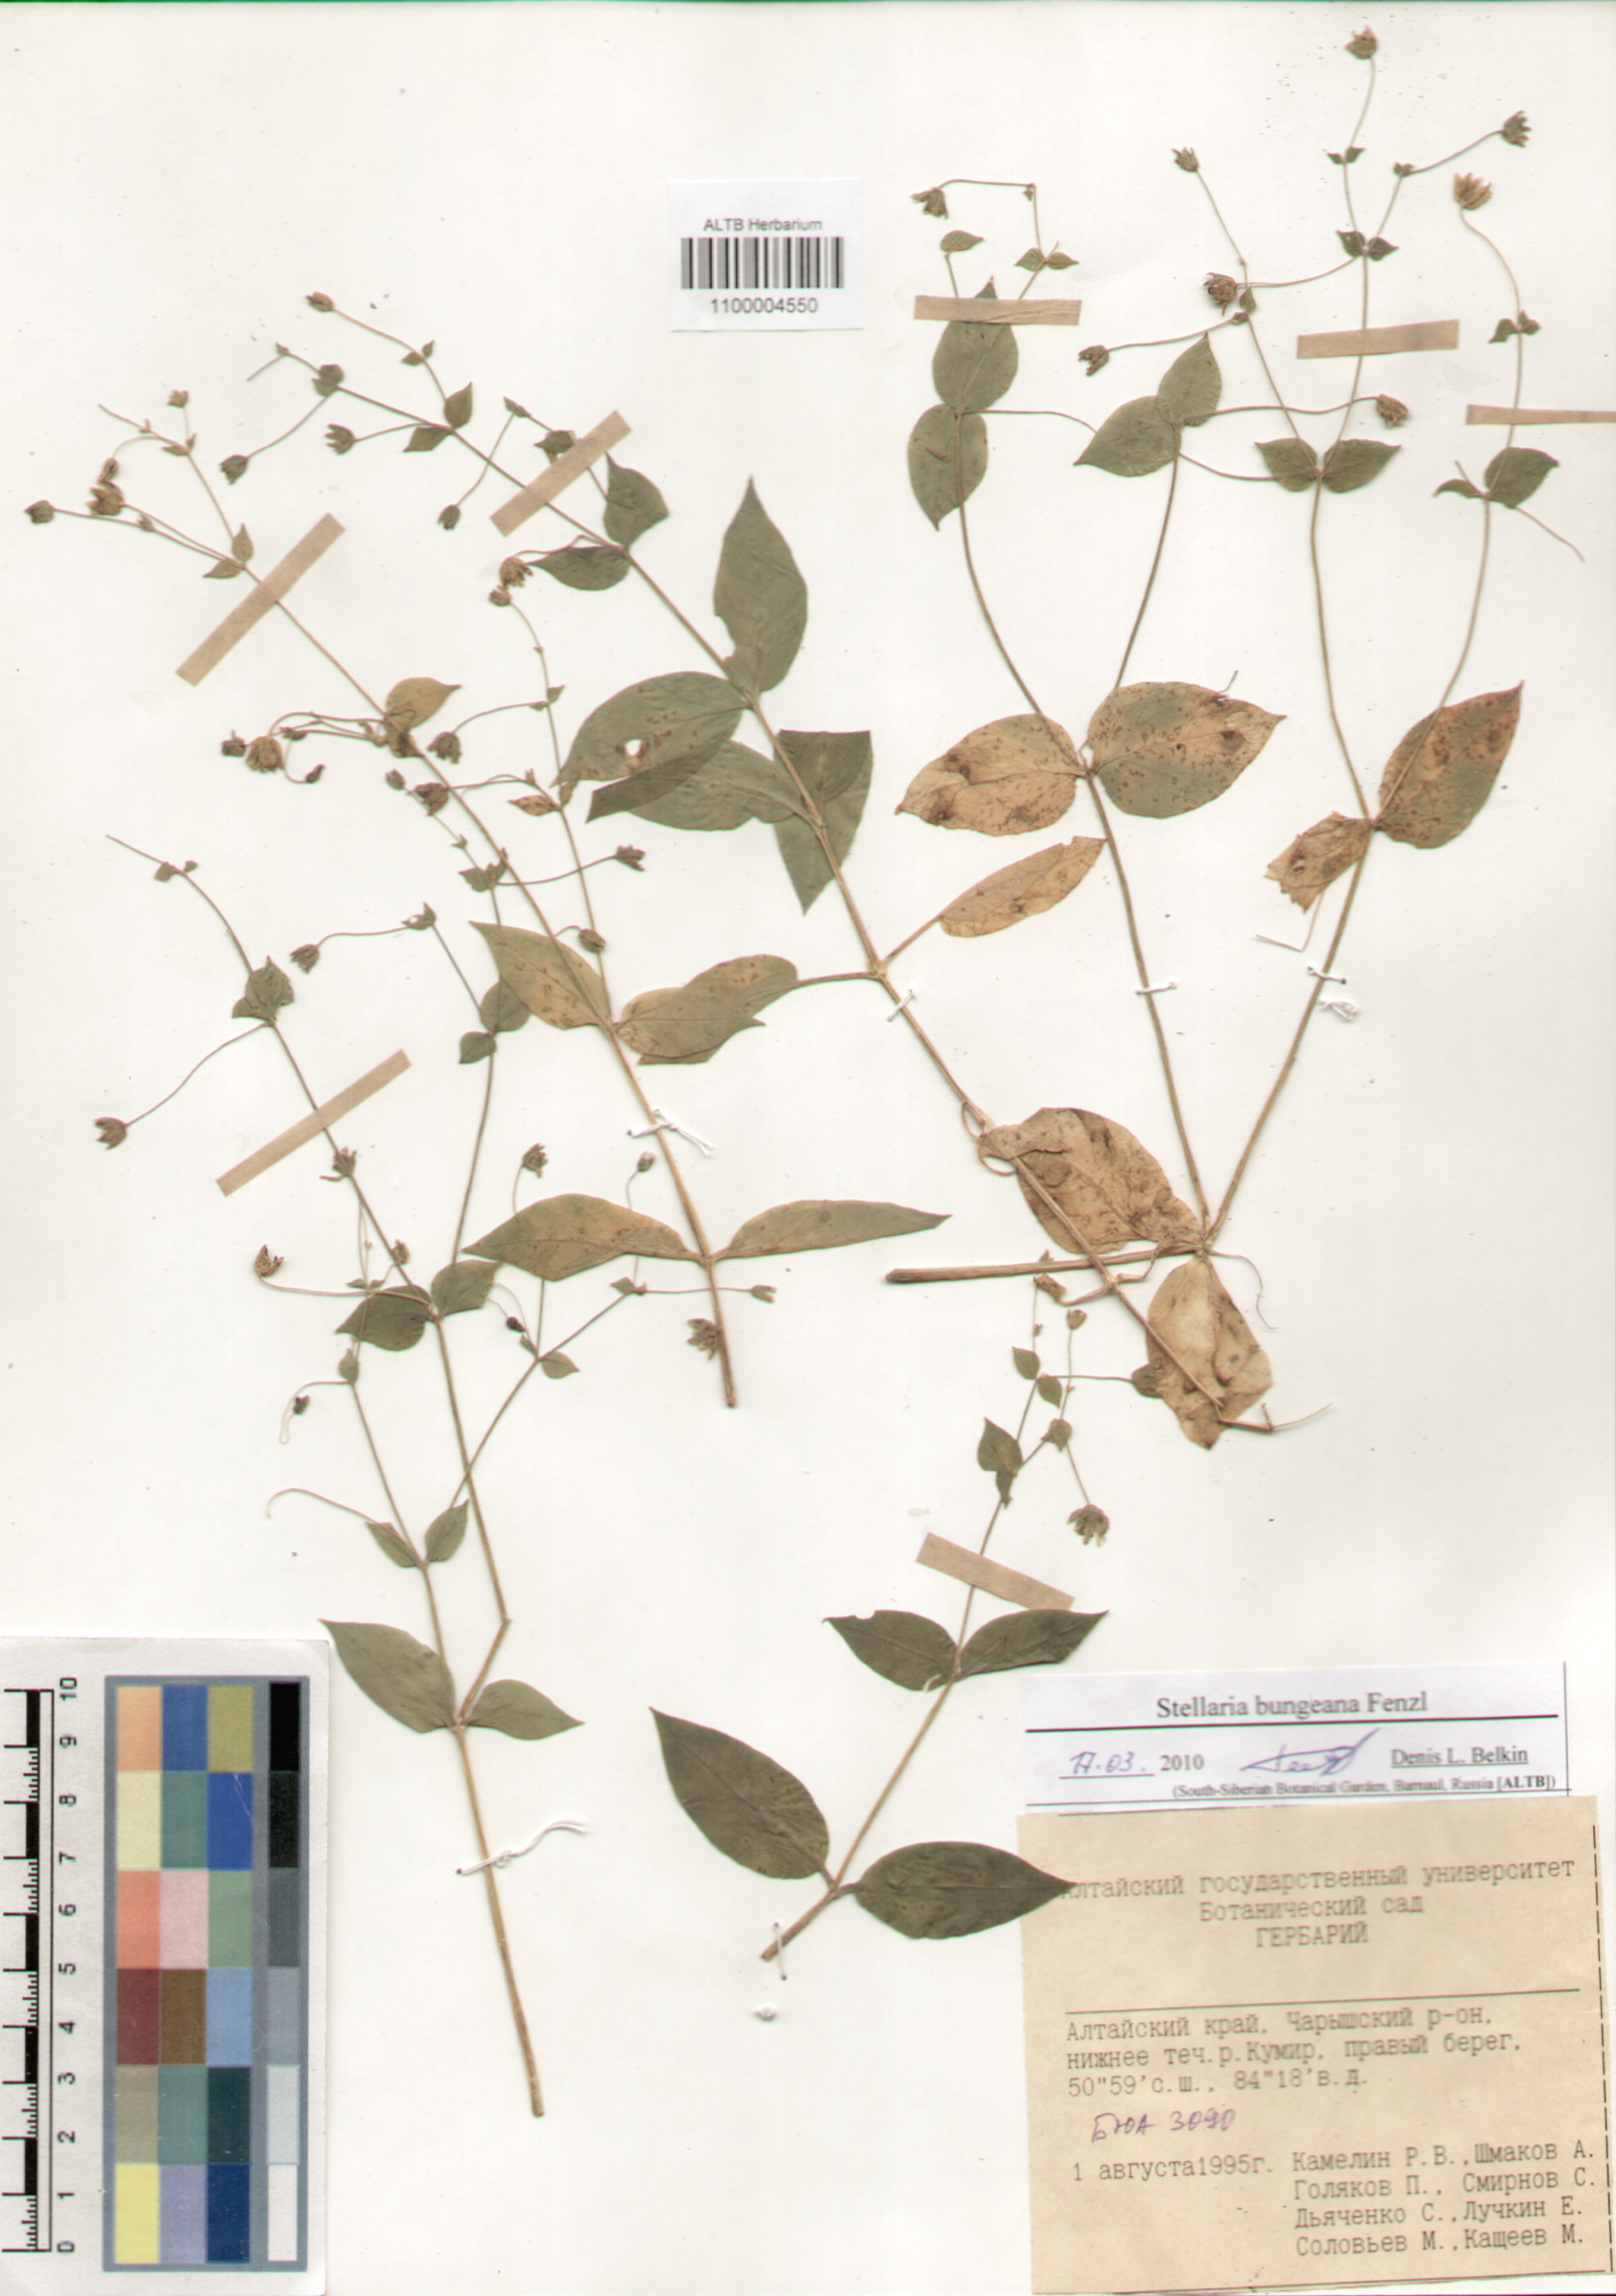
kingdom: Plantae
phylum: Tracheophyta
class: Magnoliopsida
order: Caryophyllales
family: Caryophyllaceae
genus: Stellaria
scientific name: Stellaria bungeana
